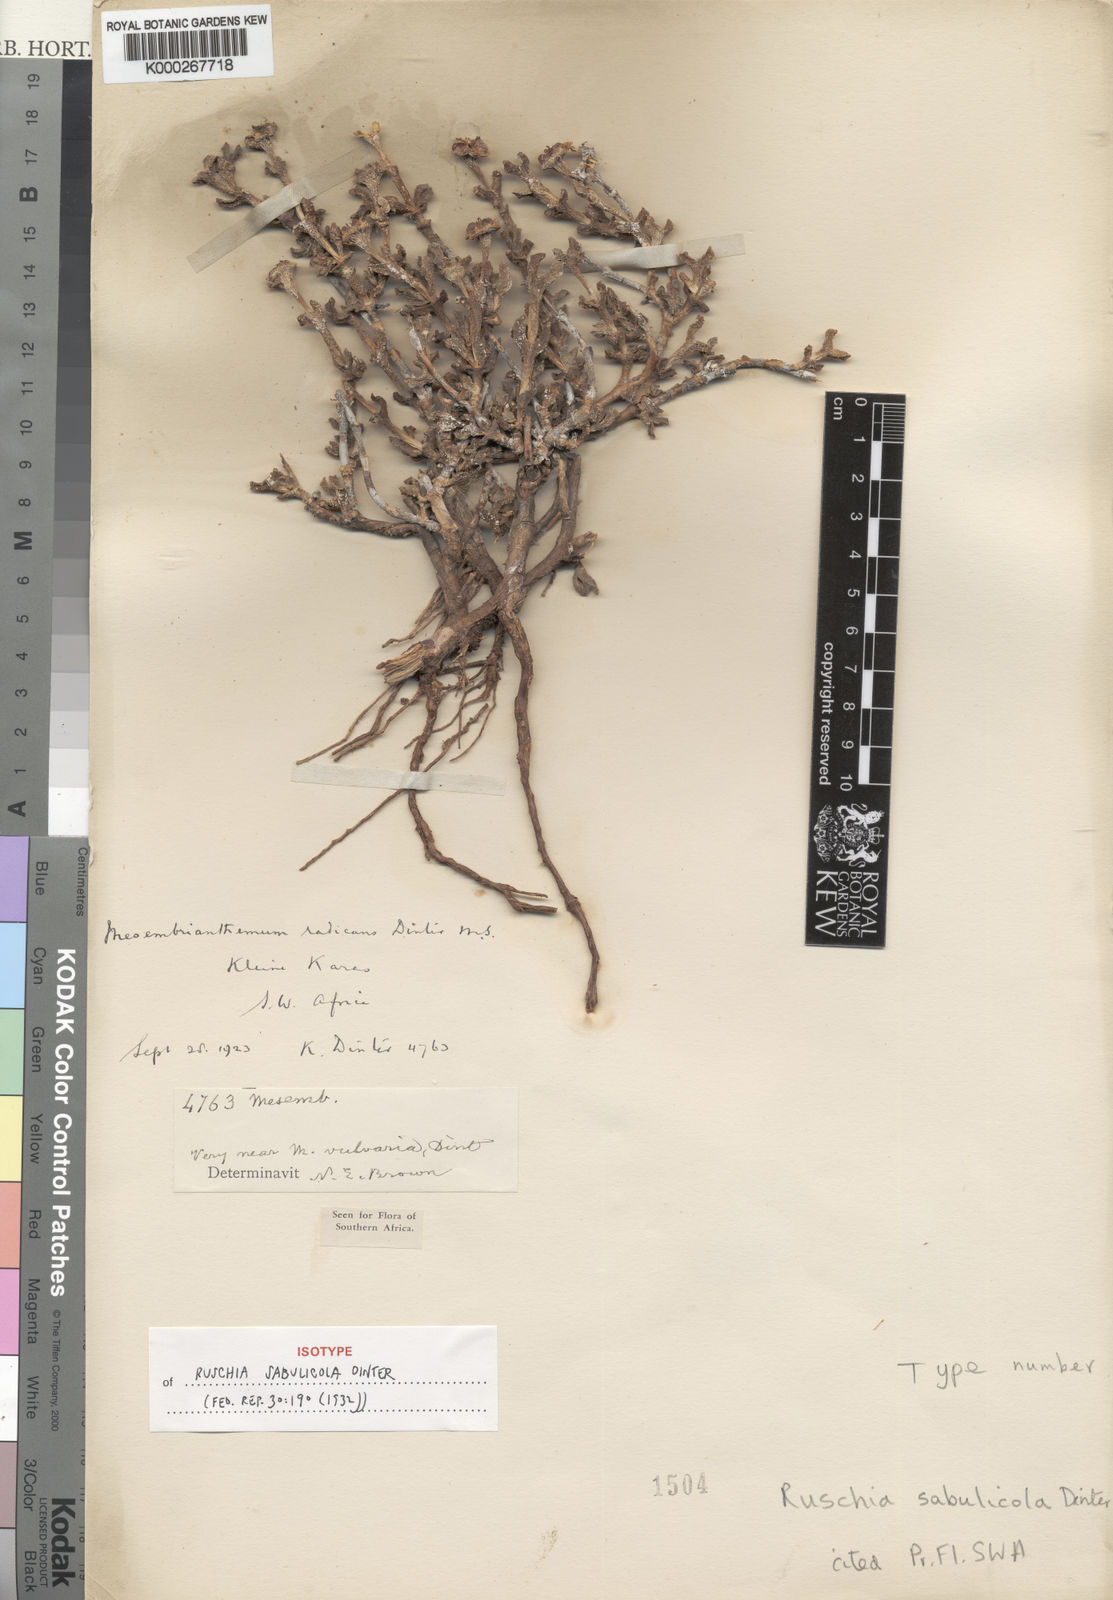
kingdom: Plantae
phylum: Tracheophyta
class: Magnoliopsida
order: Caryophyllales
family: Aizoaceae
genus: Ruschia
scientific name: Ruschia sabulicola
